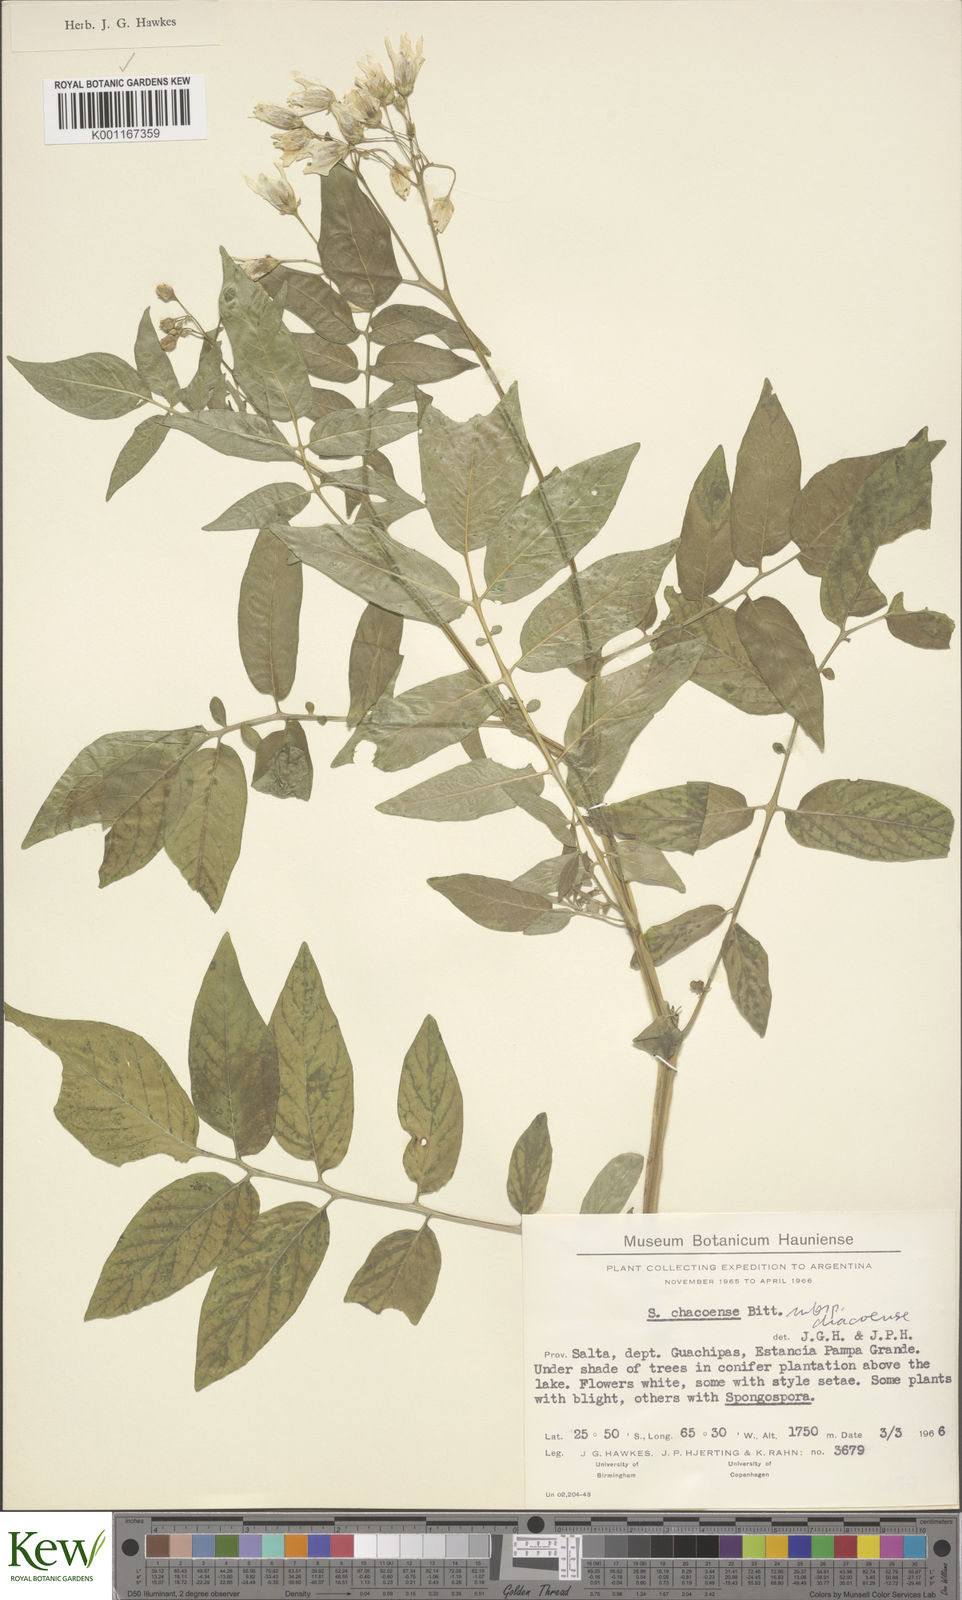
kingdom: Plantae
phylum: Tracheophyta
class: Magnoliopsida
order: Solanales
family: Solanaceae
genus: Solanum
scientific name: Solanum chacoense
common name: Chaco potato
